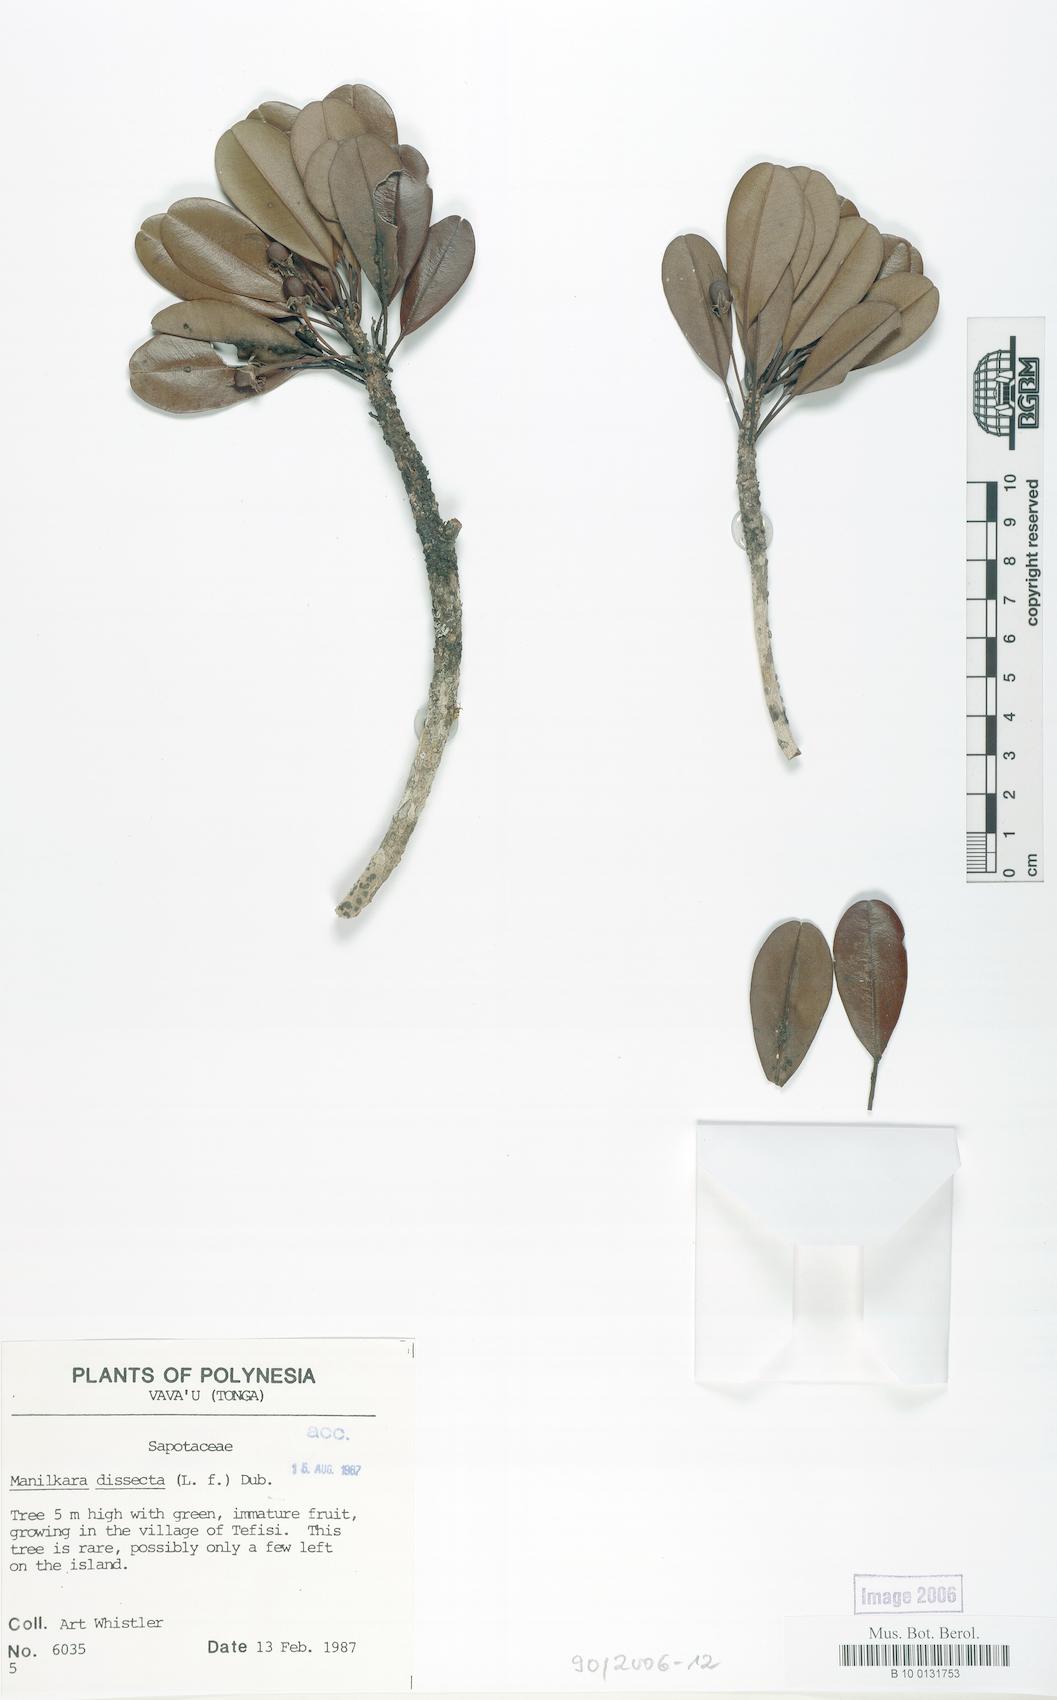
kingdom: Plantae
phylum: Tracheophyta
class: Magnoliopsida
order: Ericales
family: Sapotaceae
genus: Manilkara
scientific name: Manilkara dissecta
